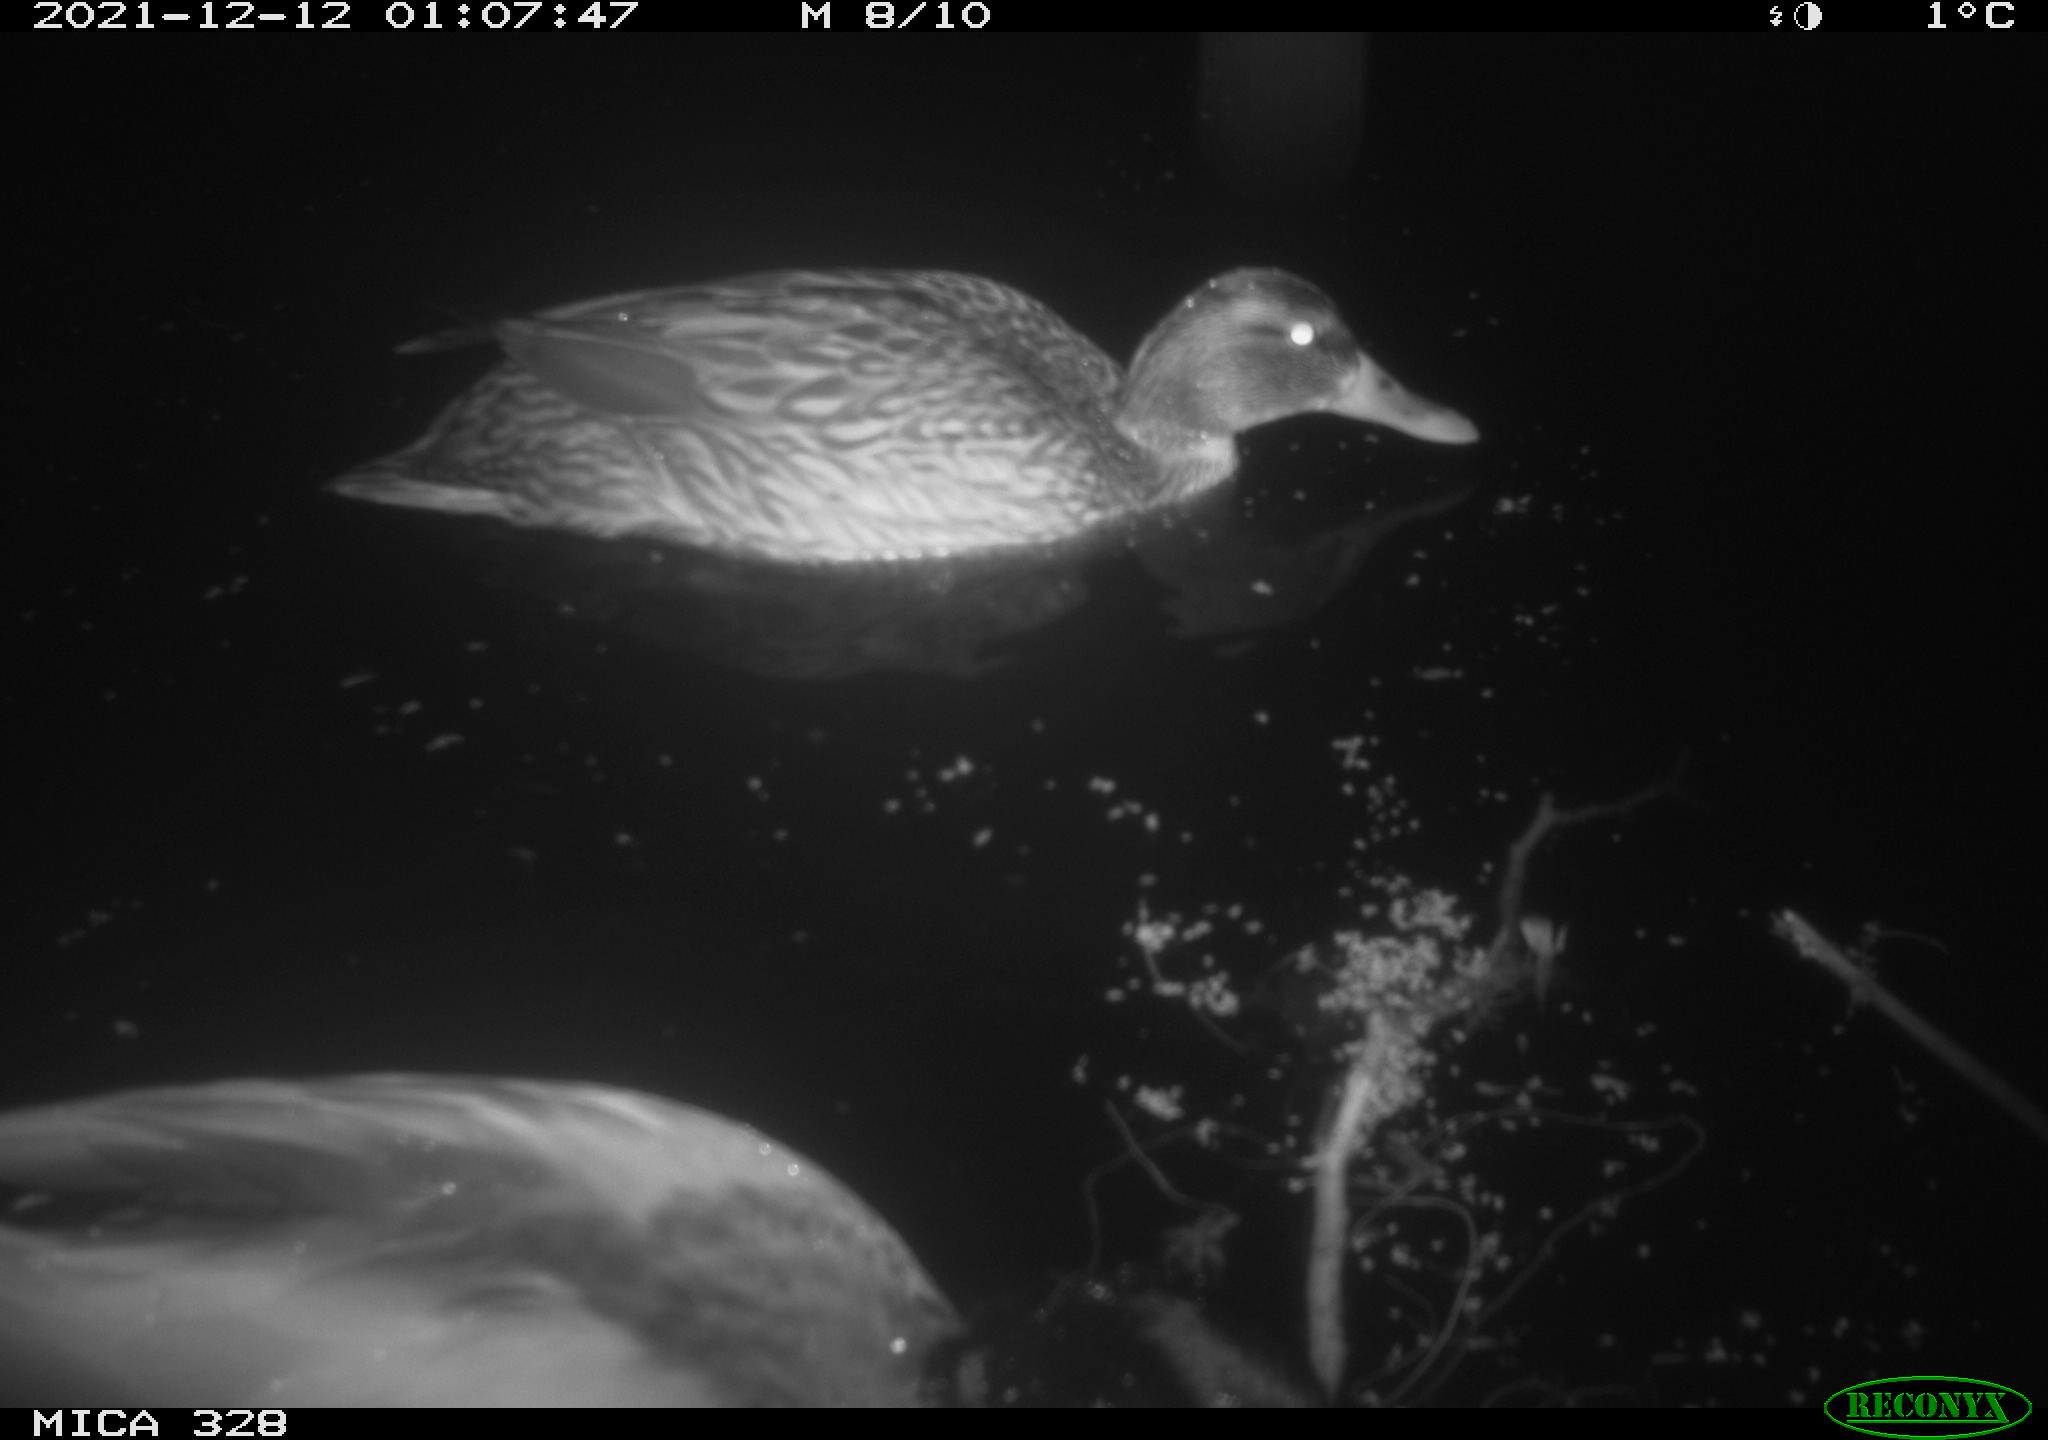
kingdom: Animalia
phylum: Chordata
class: Aves
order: Anseriformes
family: Anatidae
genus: Anas
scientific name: Anas platyrhynchos
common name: Mallard
